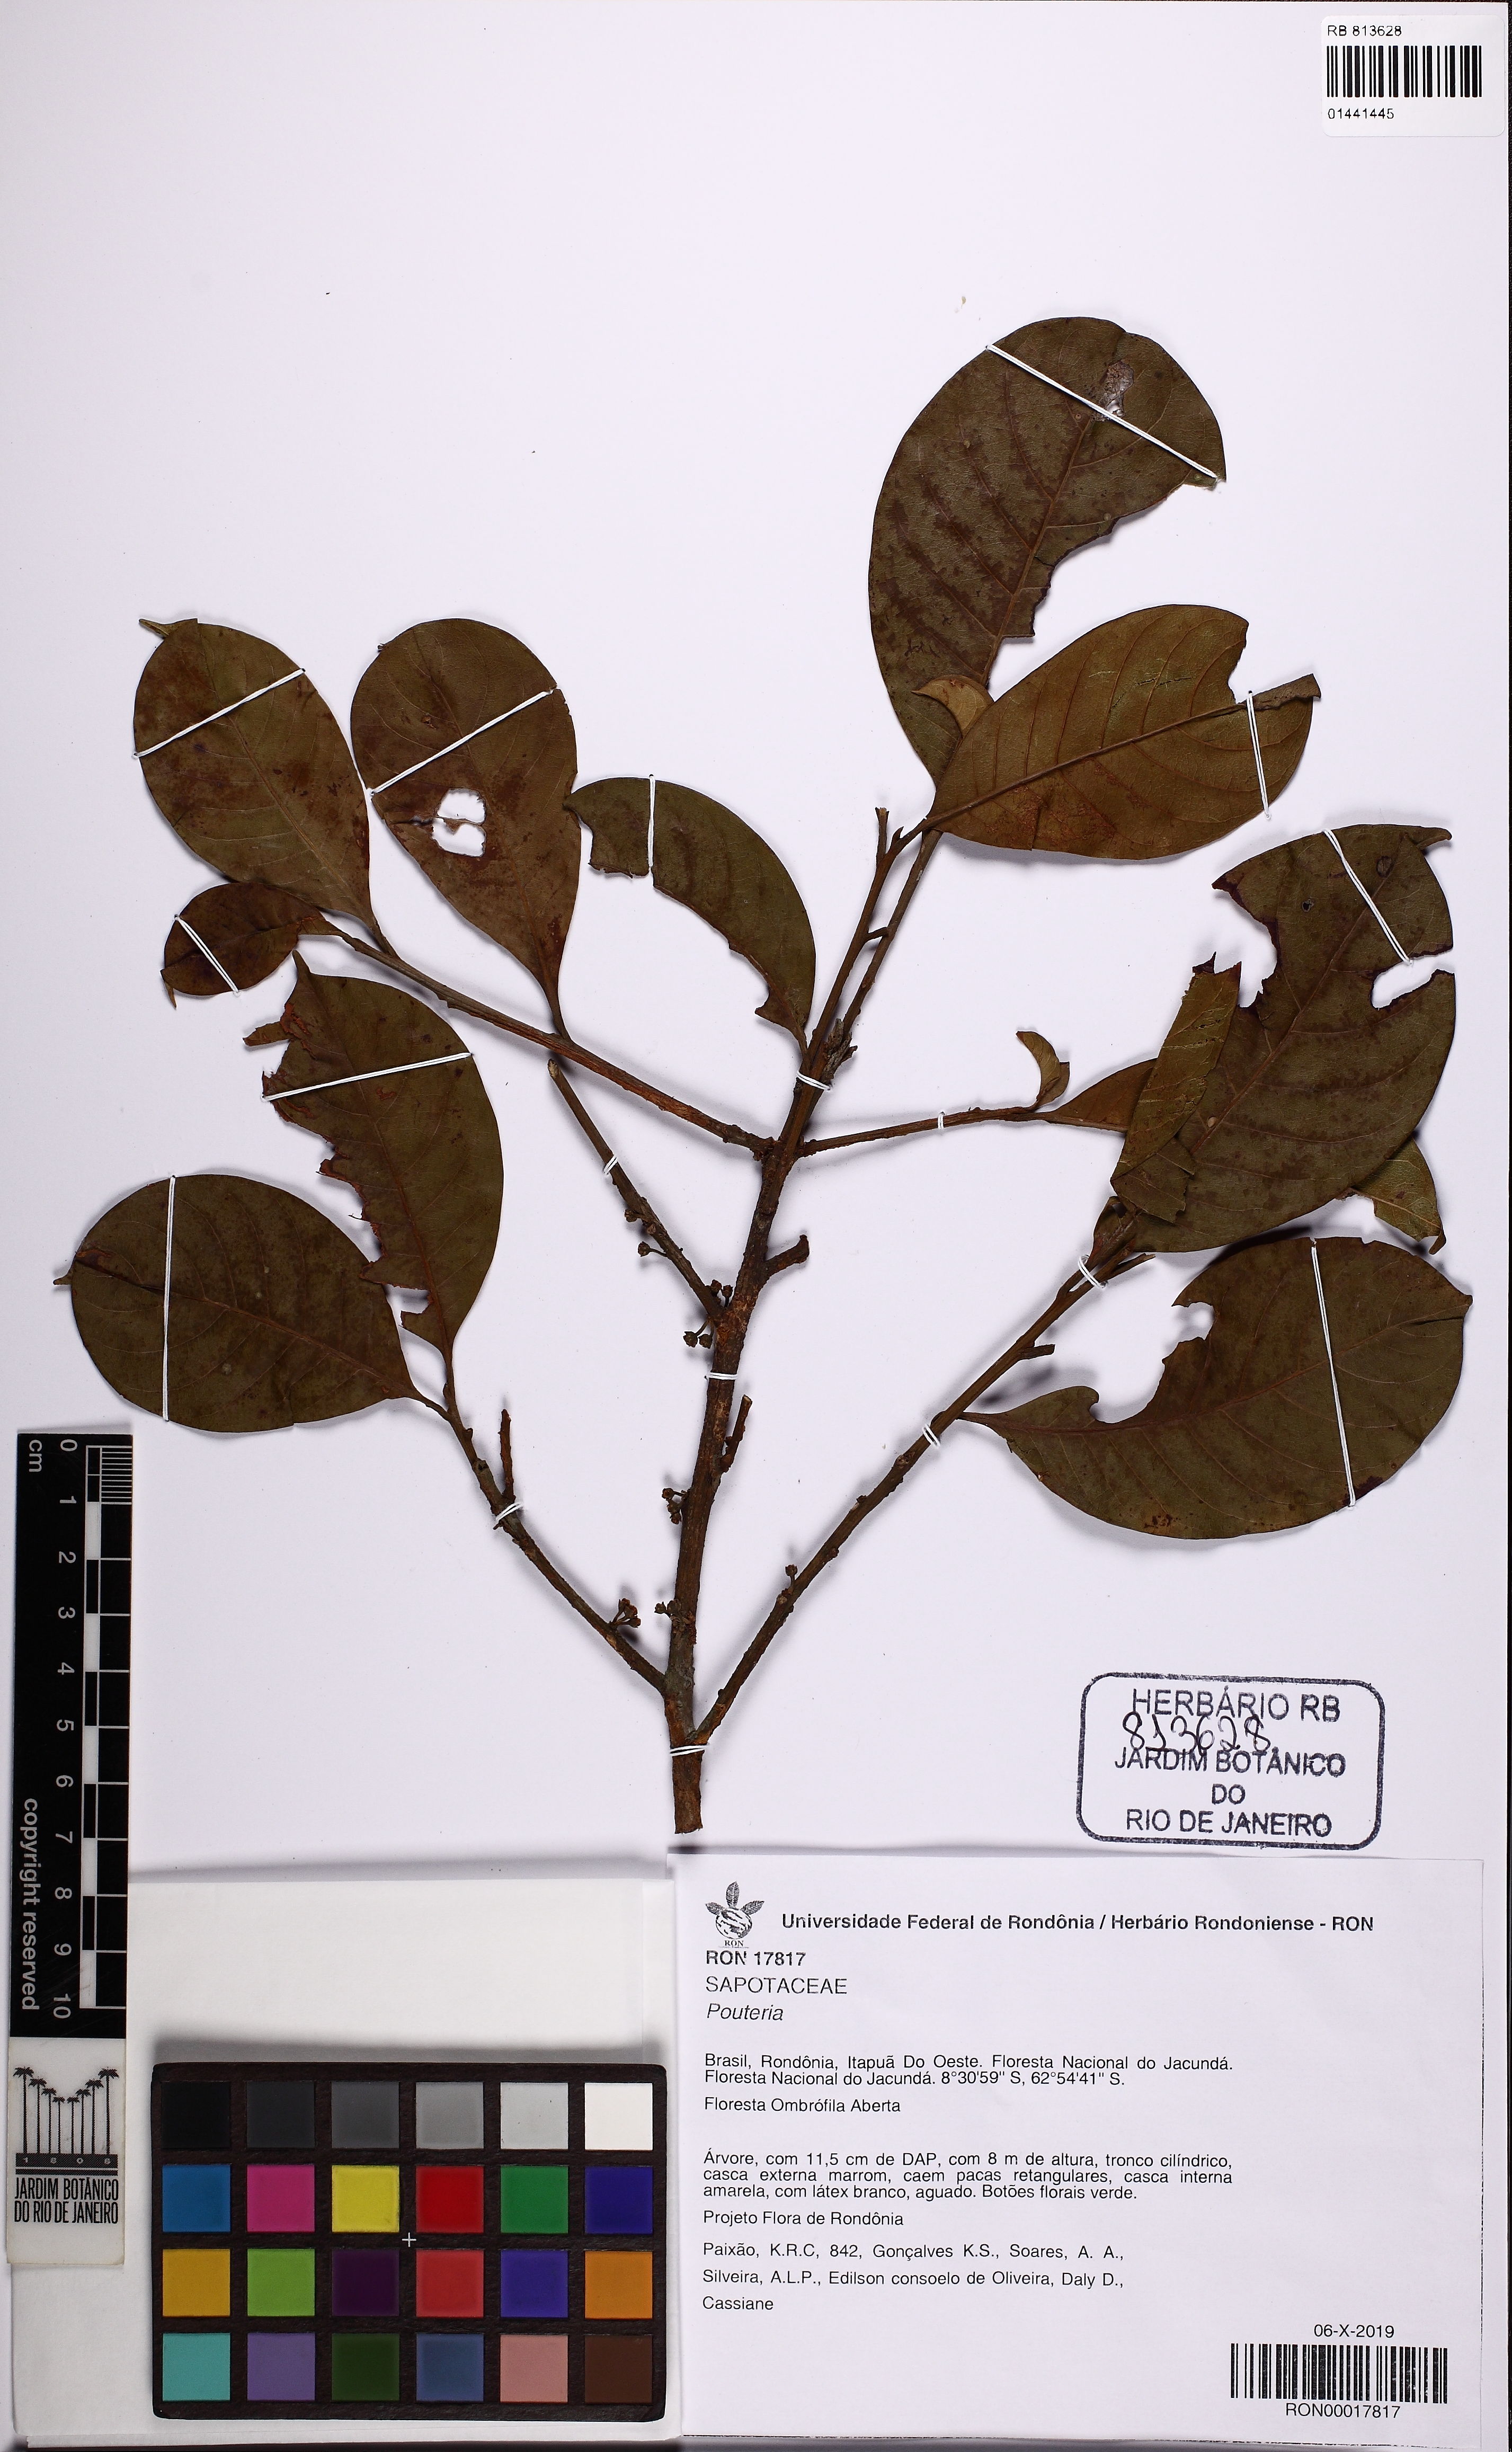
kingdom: Plantae
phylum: Tracheophyta
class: Magnoliopsida
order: Ericales
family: Sapotaceae
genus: Pouteria
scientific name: Pouteria
